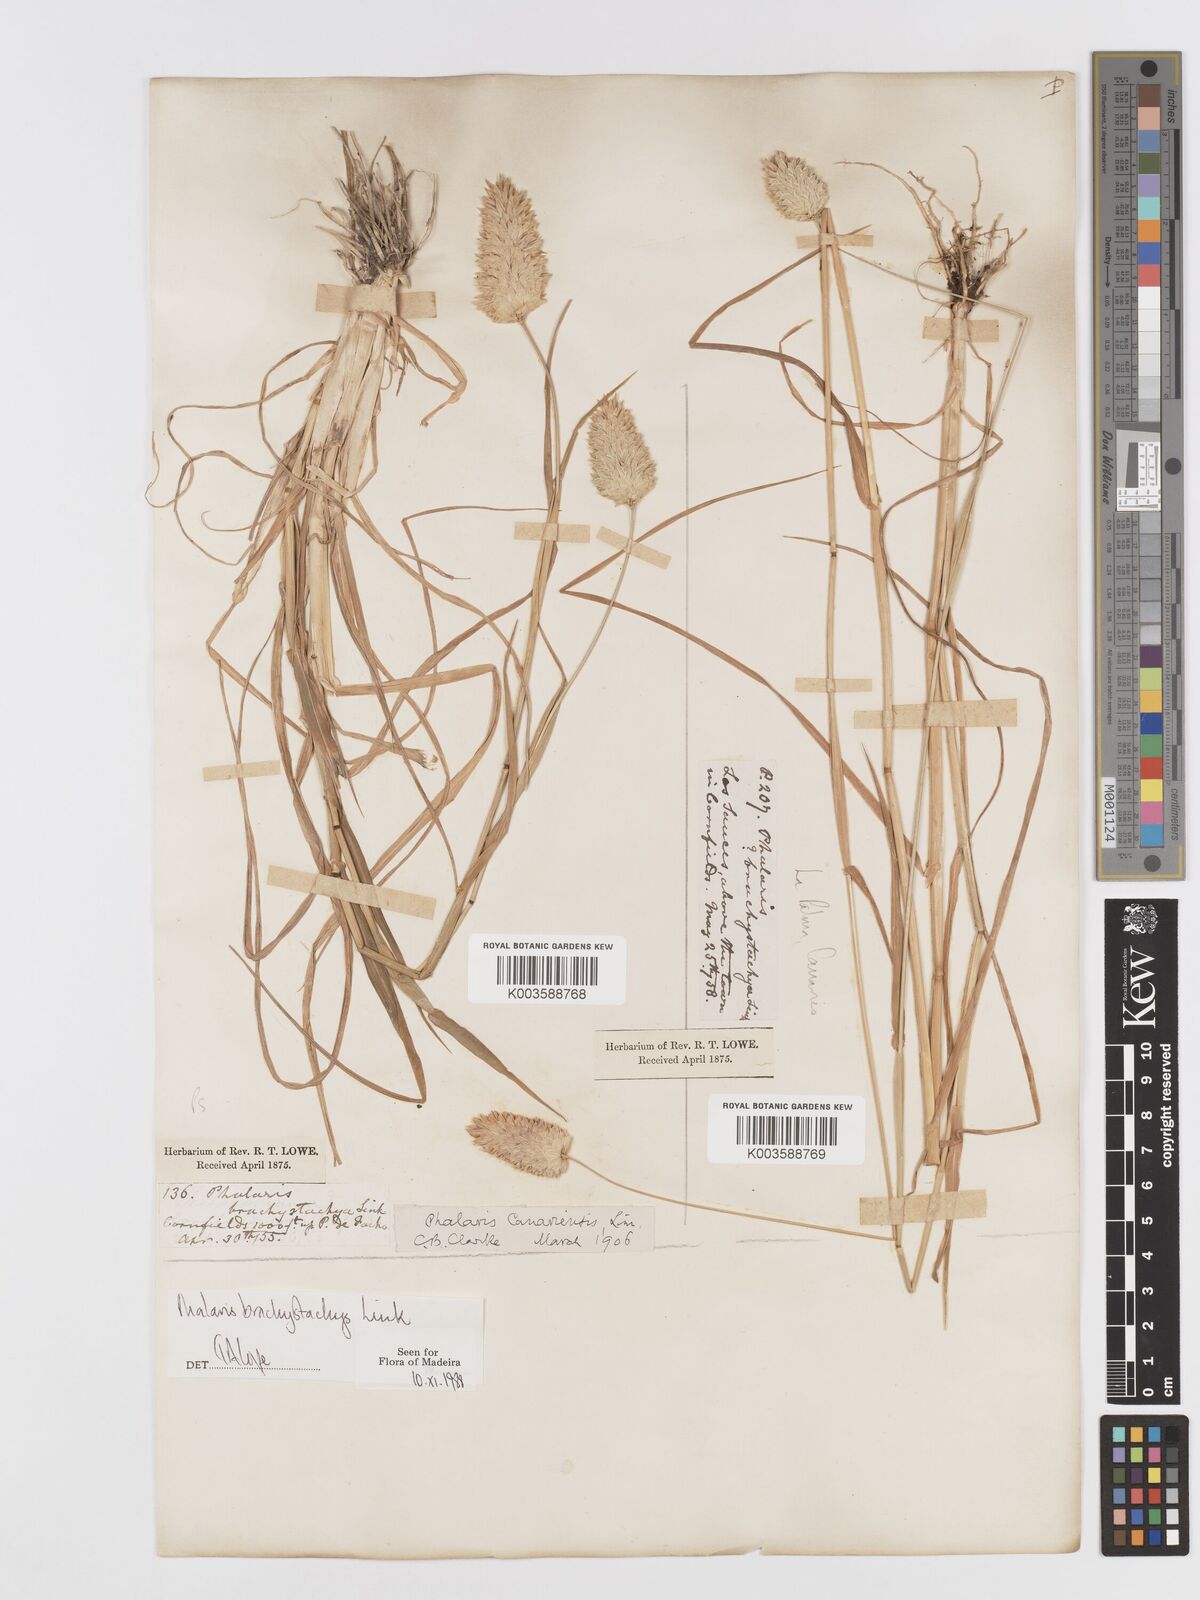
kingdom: Plantae
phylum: Tracheophyta
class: Liliopsida
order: Poales
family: Poaceae
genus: Phalaris
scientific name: Phalaris brachystachys
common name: Confused canary-grass
